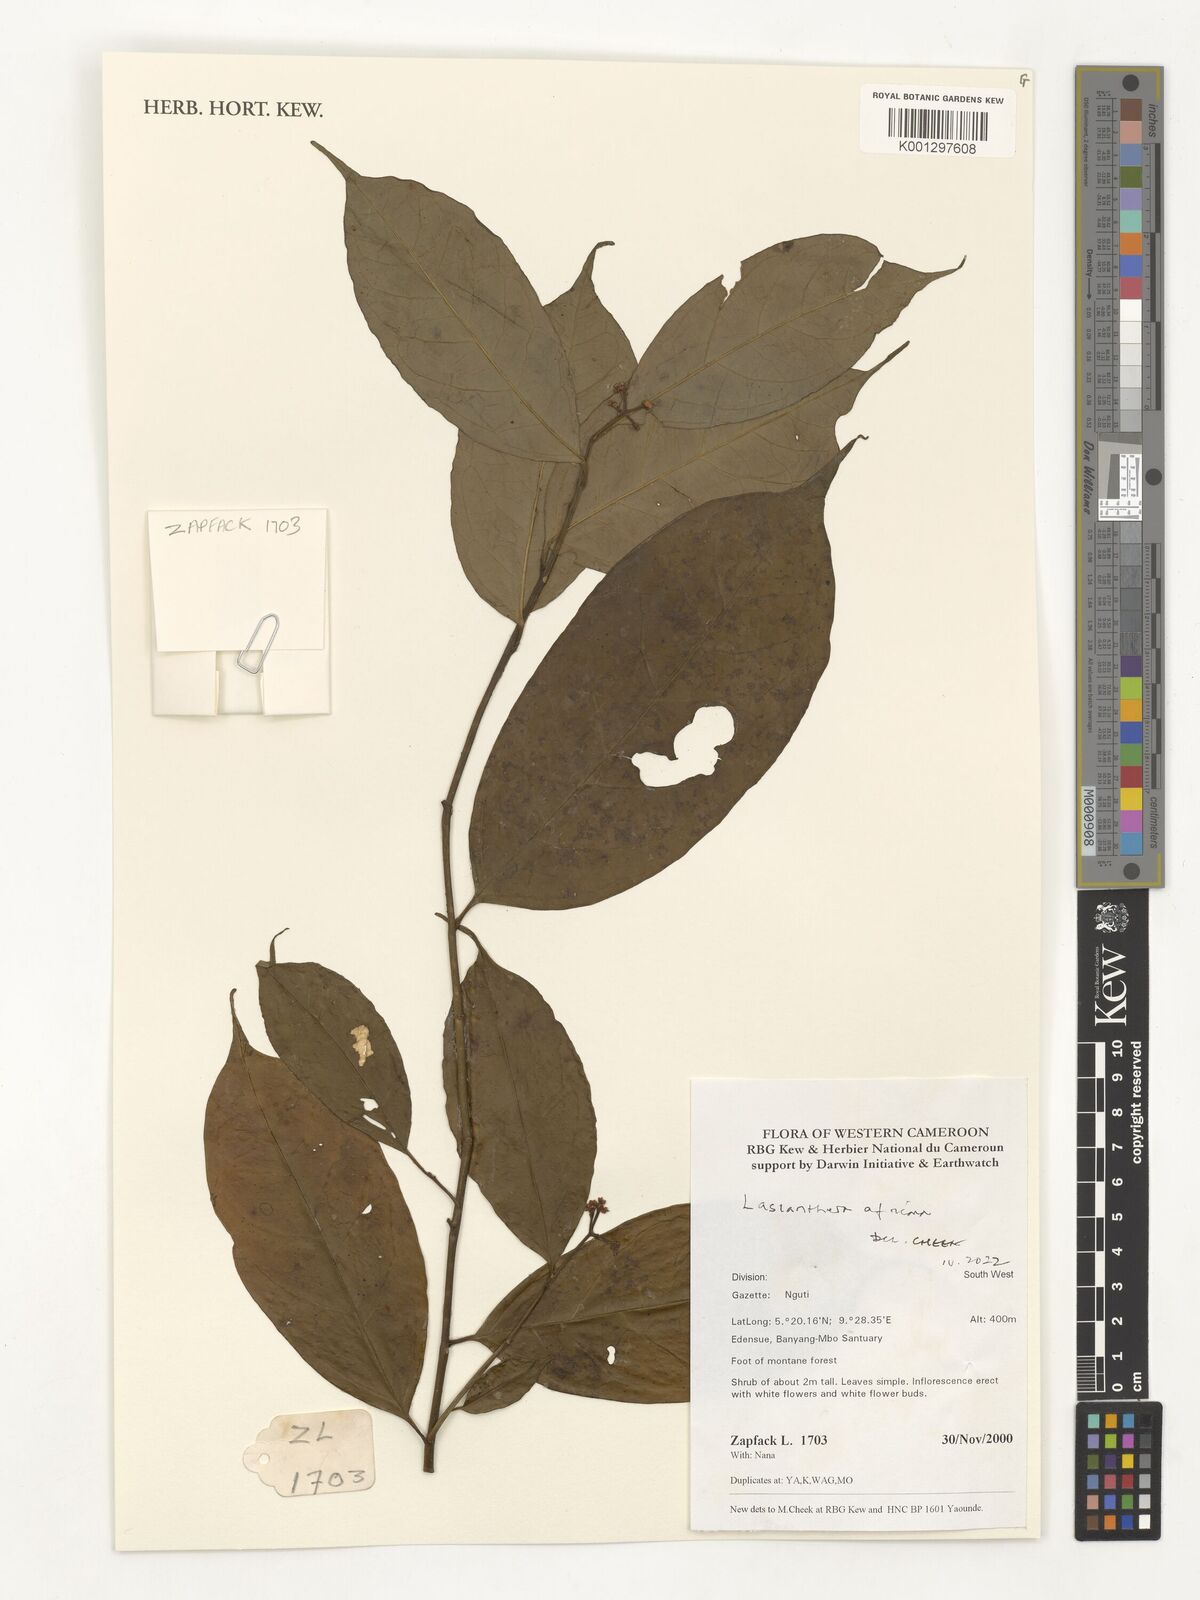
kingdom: Plantae
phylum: Tracheophyta
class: Magnoliopsida
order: Cardiopteridales
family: Stemonuraceae
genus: Lasianthera
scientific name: Lasianthera africana
